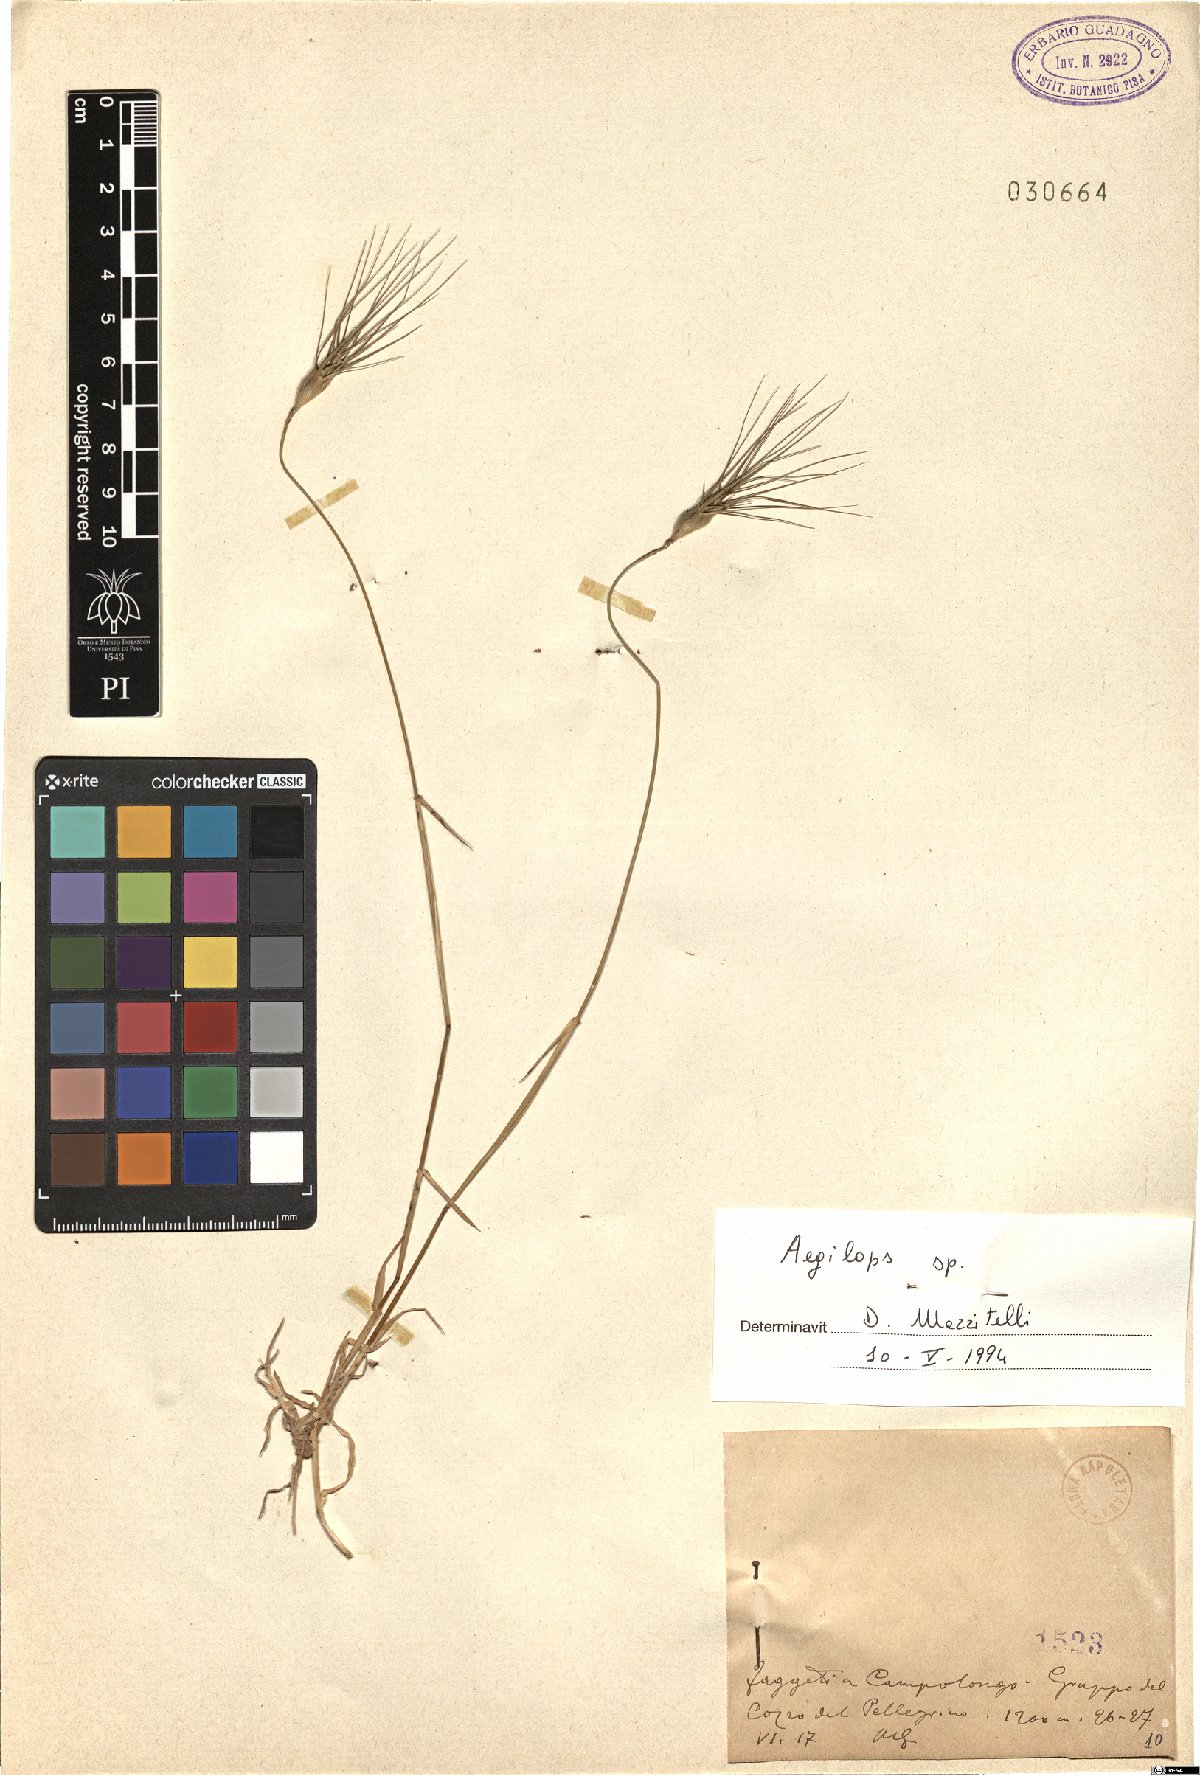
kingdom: Plantae
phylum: Tracheophyta
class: Liliopsida
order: Poales
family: Poaceae
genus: Aegilops
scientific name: Aegilops
